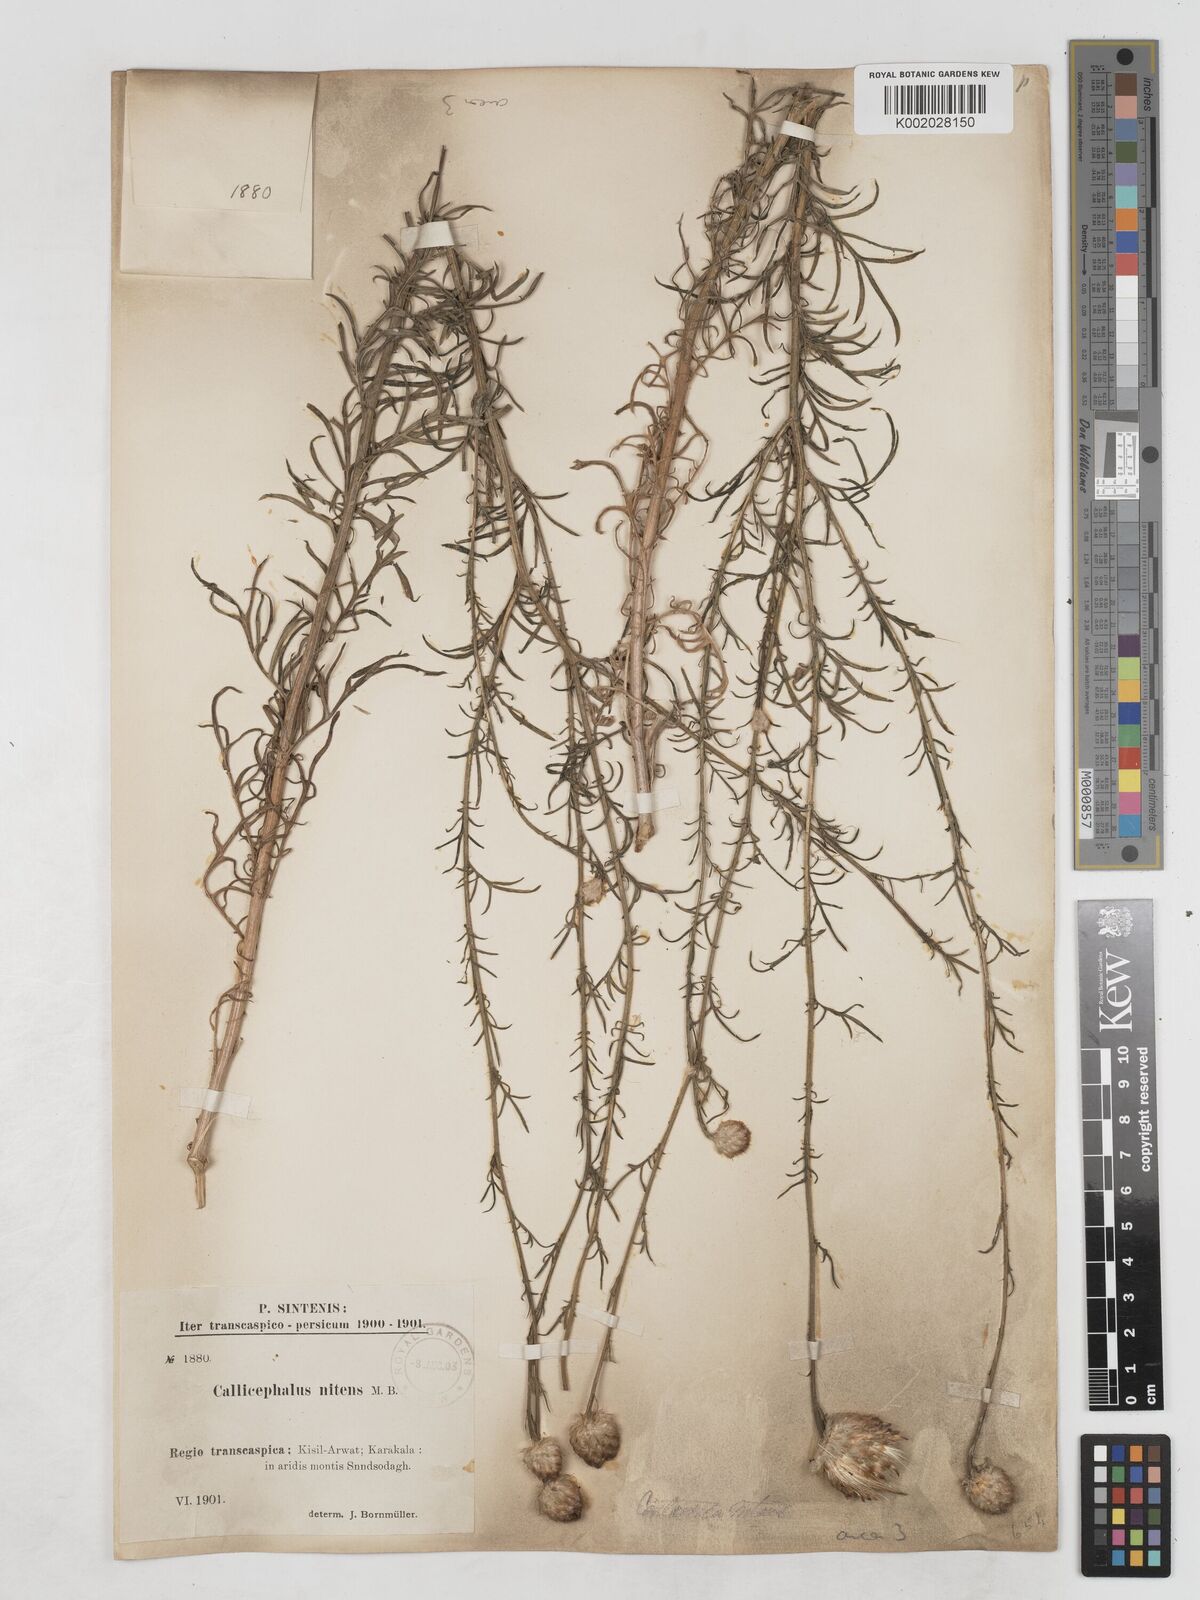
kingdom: Plantae
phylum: Tracheophyta
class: Magnoliopsida
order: Asterales
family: Asteraceae
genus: Callicephalus
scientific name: Callicephalus nitens
